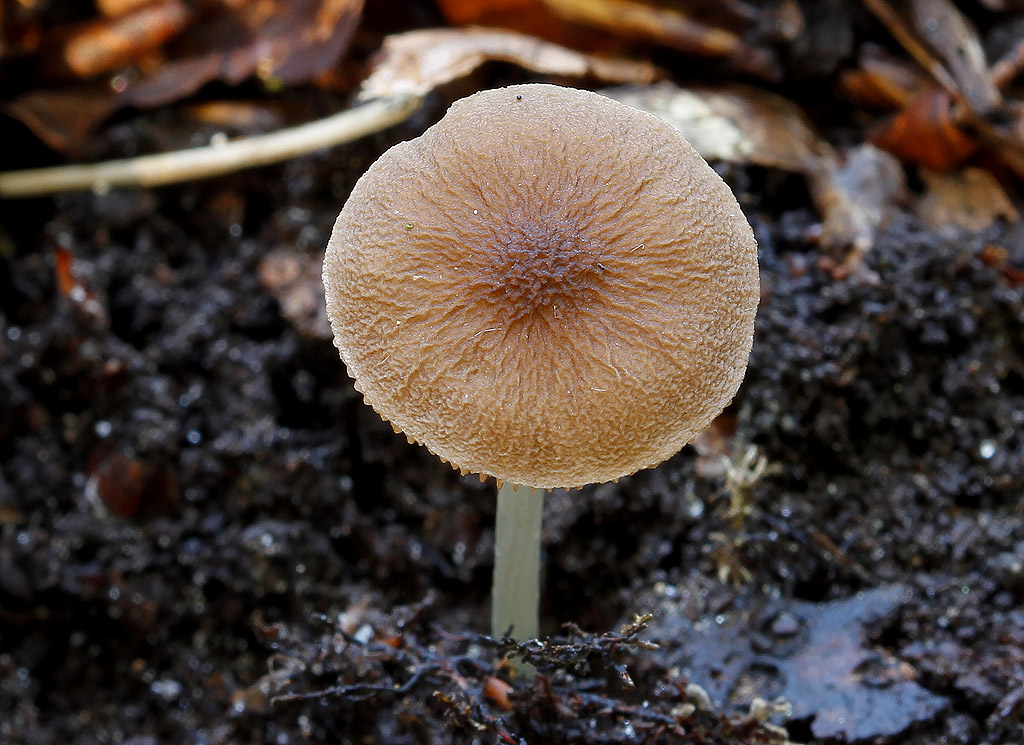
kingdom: Fungi
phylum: Basidiomycota
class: Agaricomycetes
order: Agaricales
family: Pluteaceae
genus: Pluteus
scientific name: Pluteus phlebophorus
